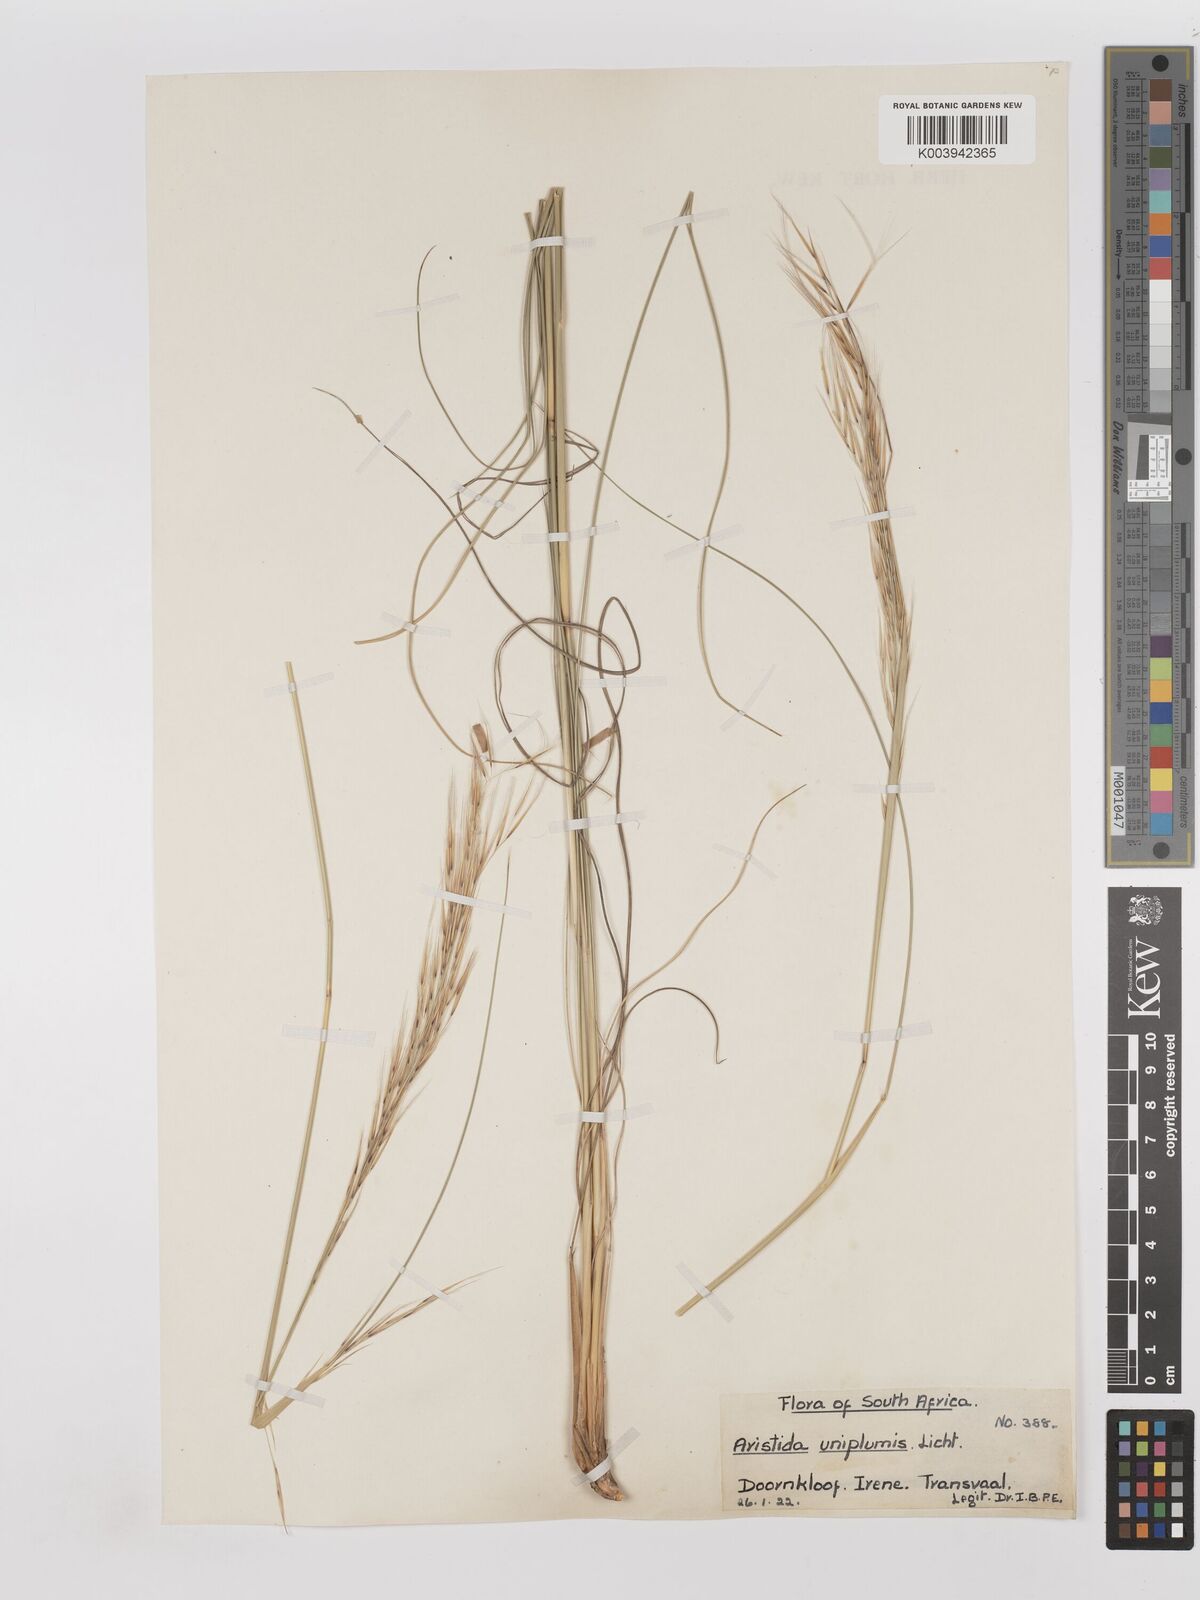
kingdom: Plantae
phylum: Tracheophyta
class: Liliopsida
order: Poales
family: Poaceae
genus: Stipagrostis
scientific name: Stipagrostis uniplumis
